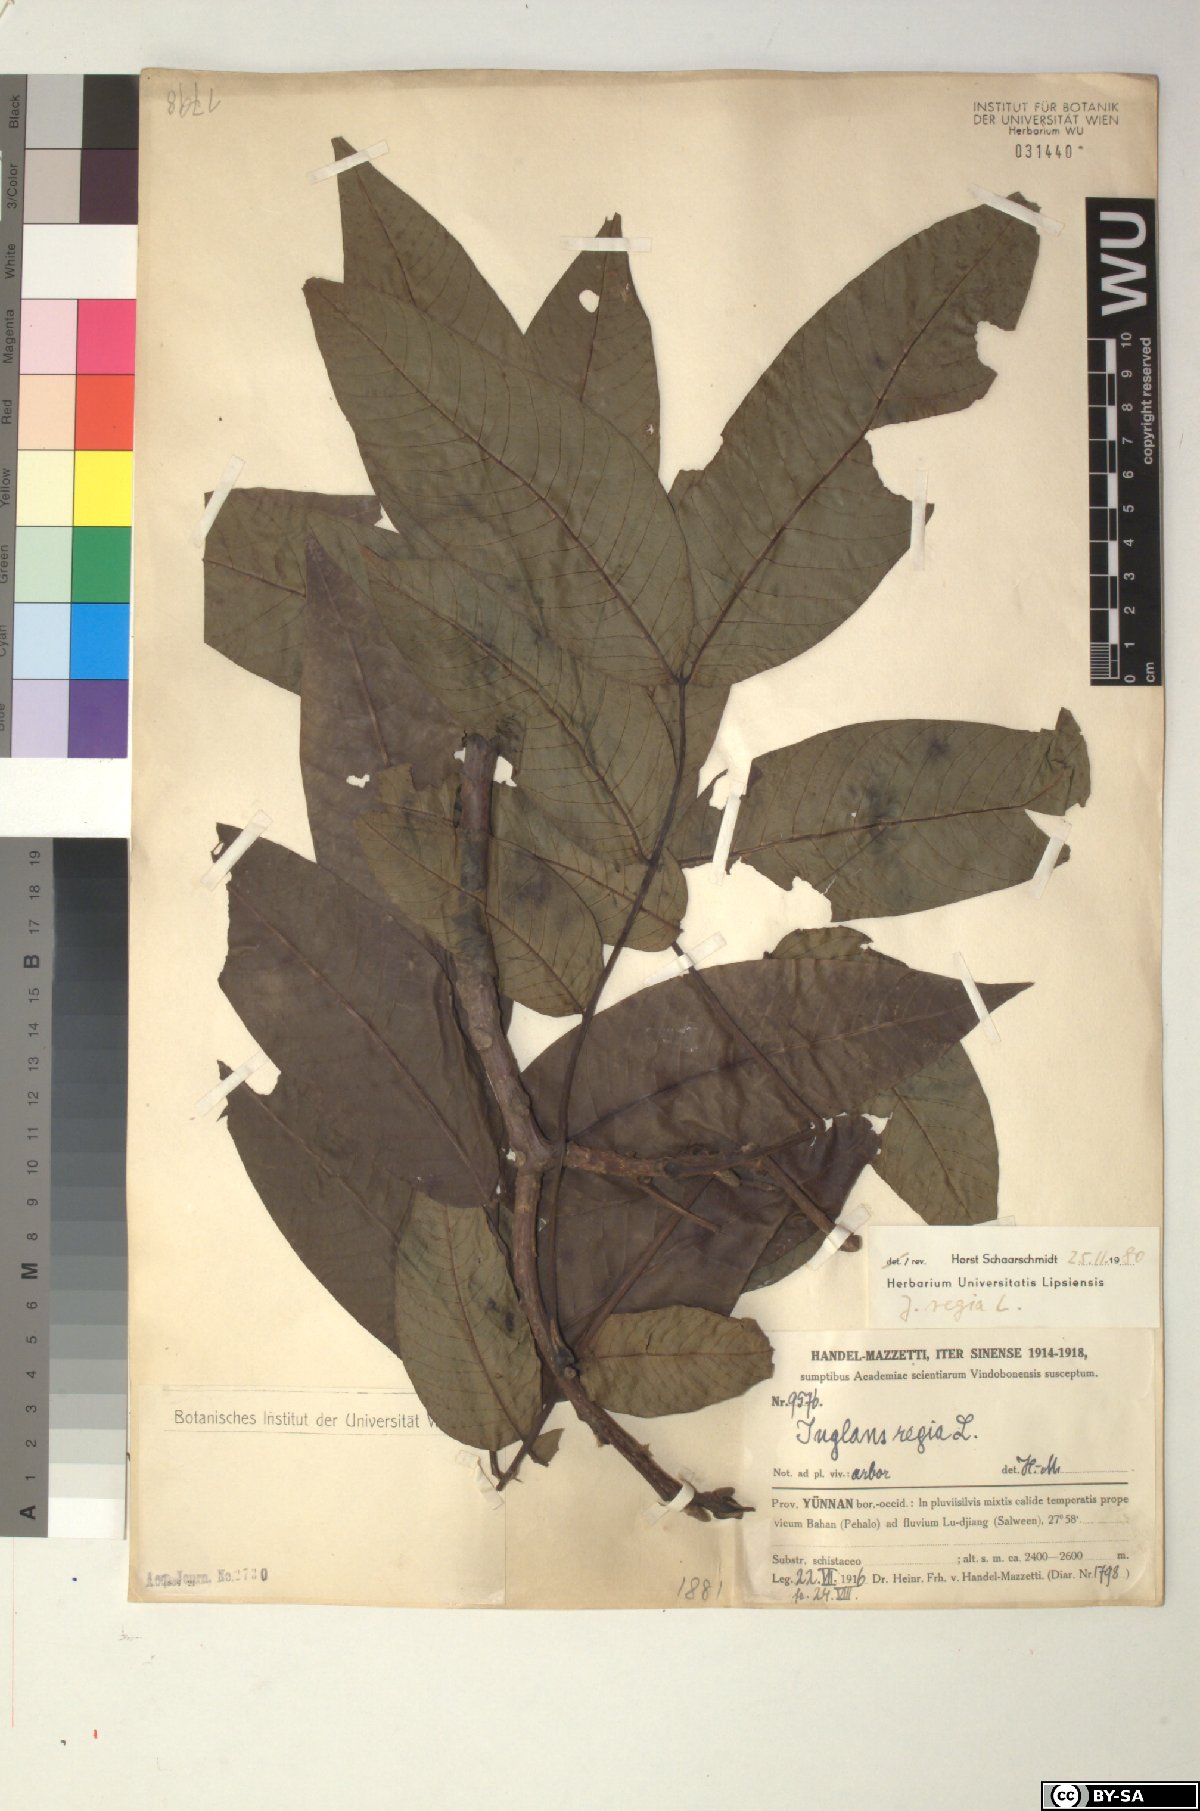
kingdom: Plantae
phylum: Tracheophyta
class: Magnoliopsida
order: Fagales
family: Juglandaceae
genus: Juglans
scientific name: Juglans regia
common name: Walnut
